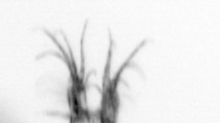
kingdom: Animalia
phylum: Arthropoda
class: Copepoda
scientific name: Copepoda
